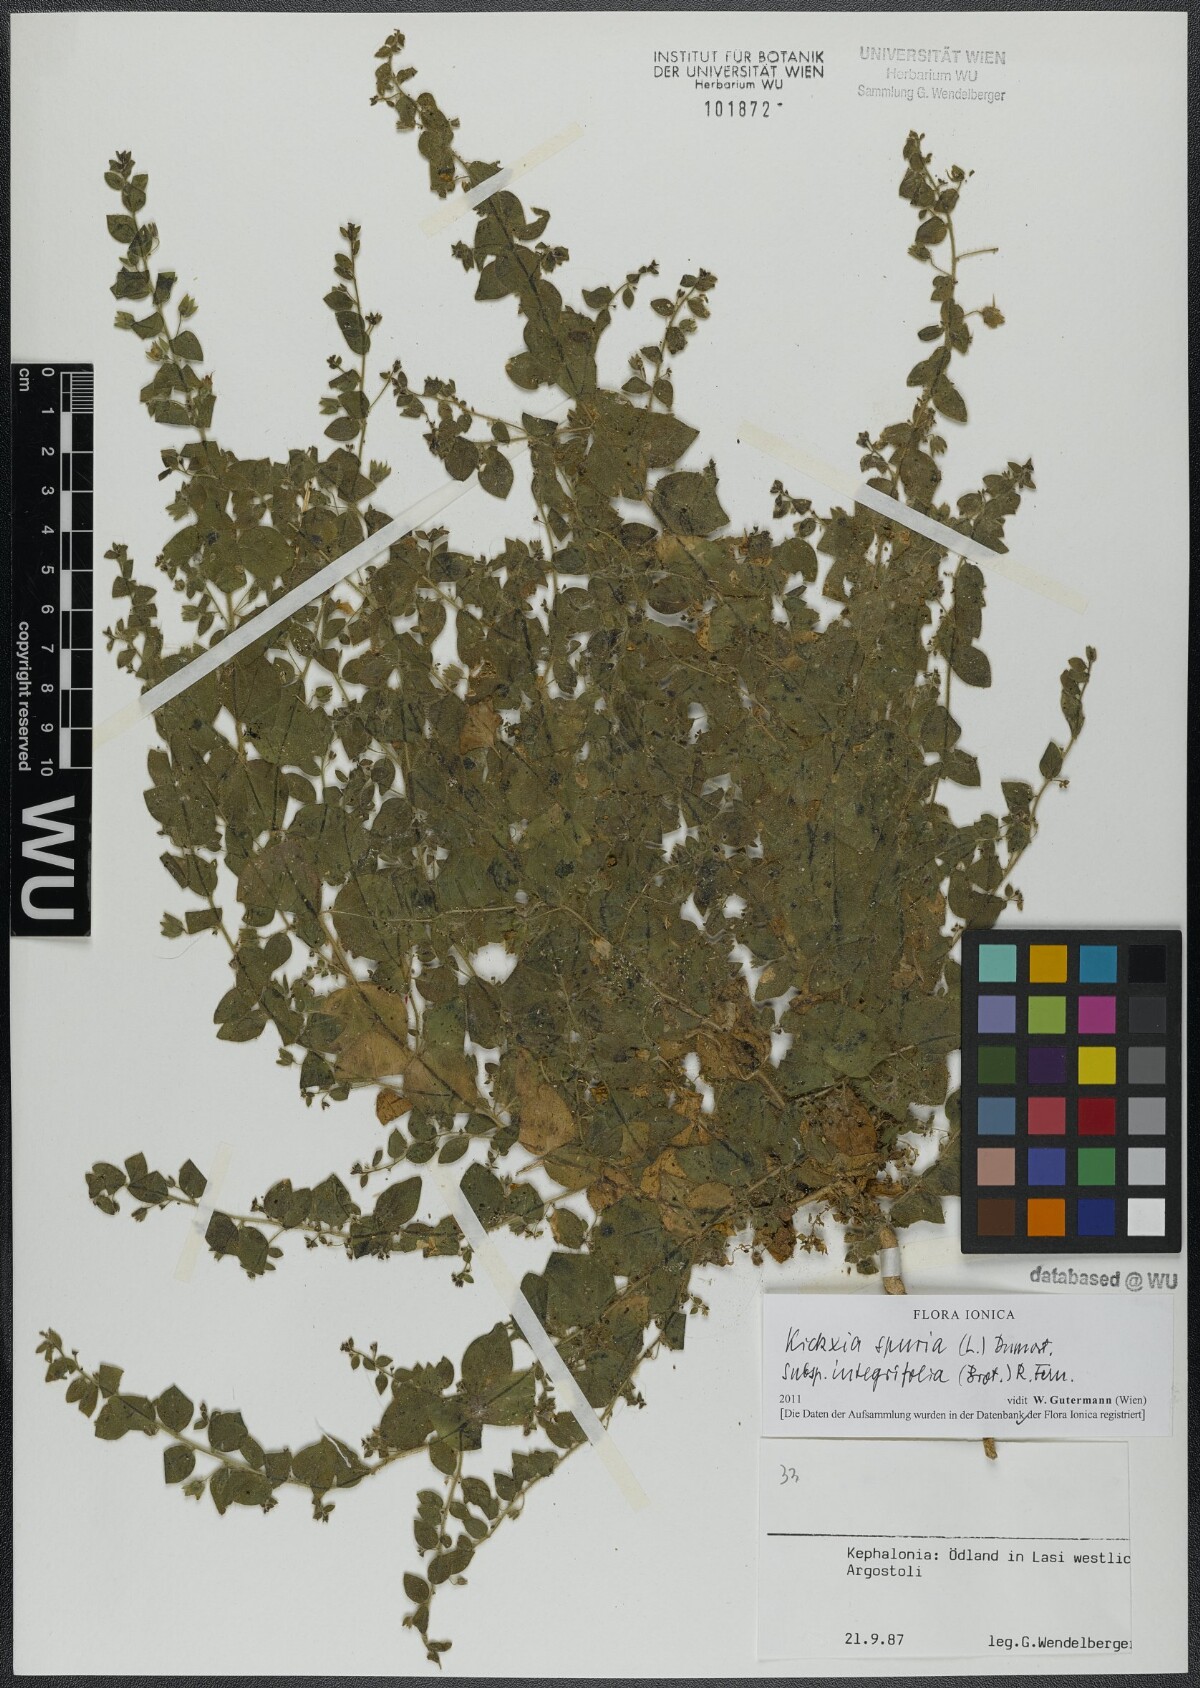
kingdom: Plantae
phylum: Tracheophyta
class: Magnoliopsida
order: Lamiales
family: Plantaginaceae
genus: Kickxia
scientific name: Kickxia spuria
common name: Round-leaved fluellen
